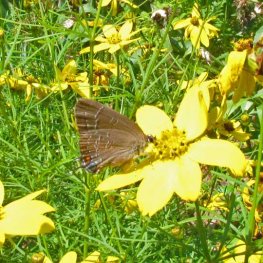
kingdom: Animalia
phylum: Arthropoda
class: Insecta
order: Lepidoptera
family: Lycaenidae
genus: Satyrium
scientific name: Satyrium calanus
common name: Banded Hairstreak
